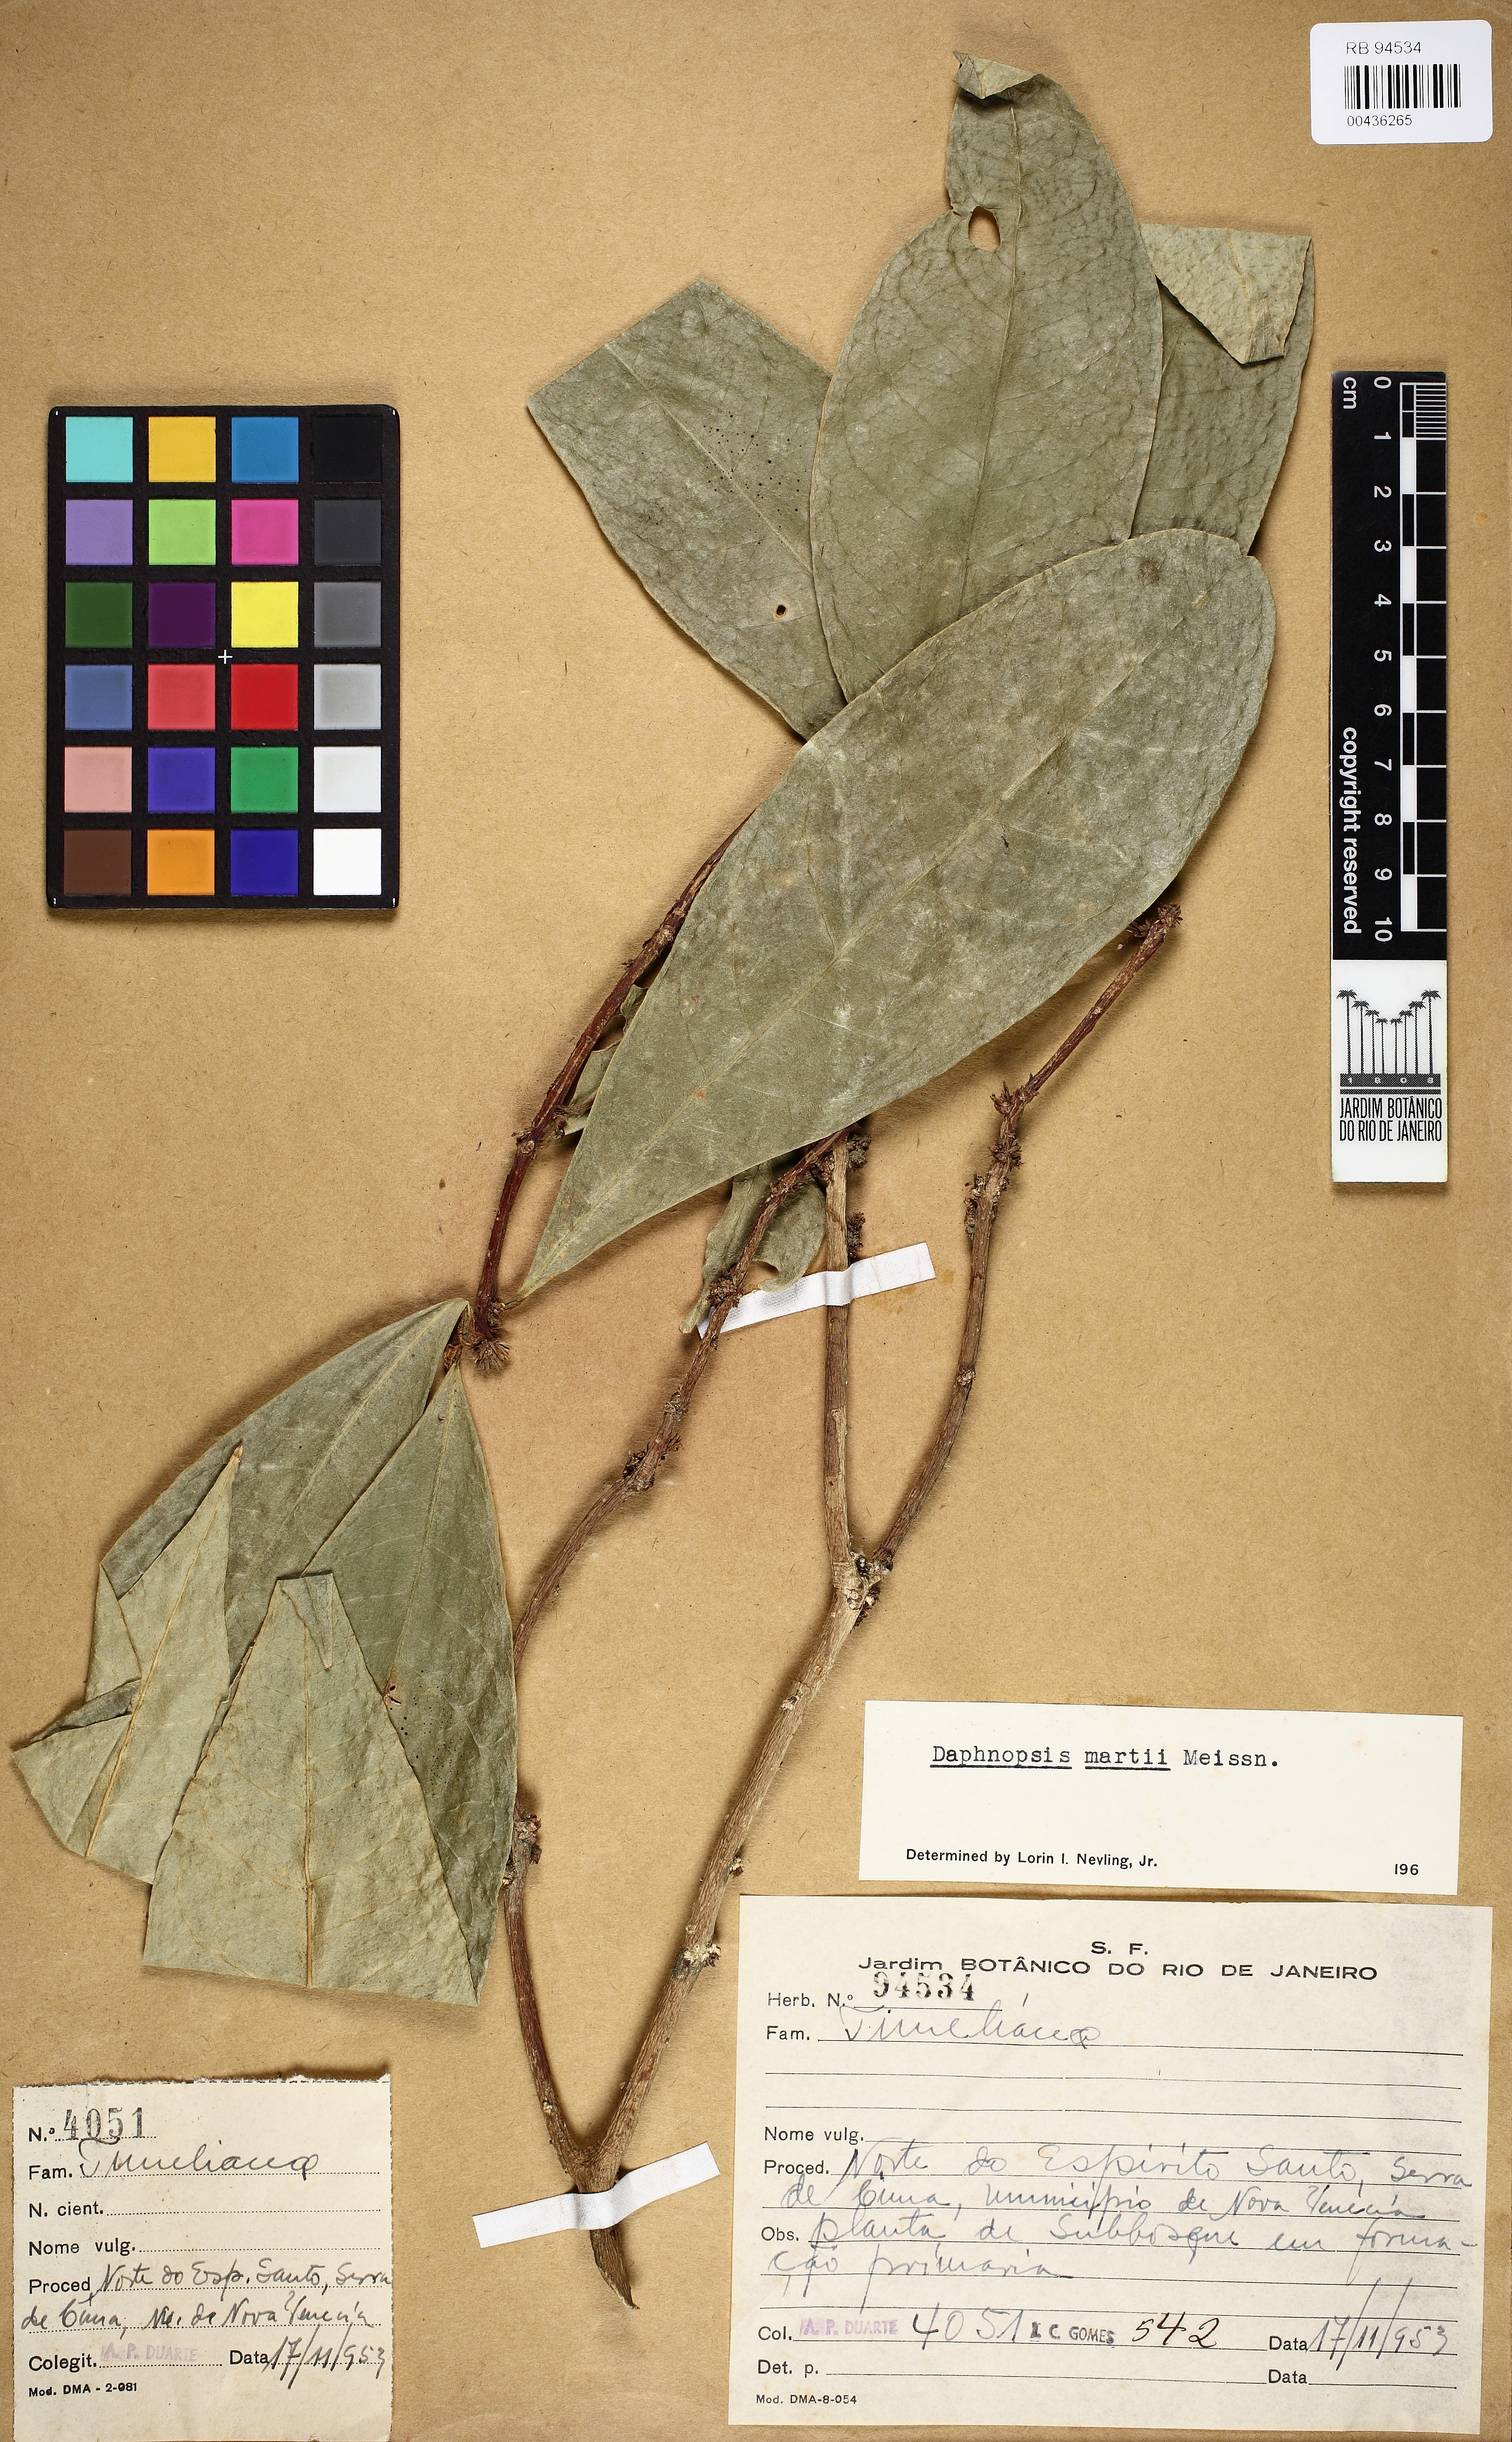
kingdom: Plantae
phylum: Tracheophyta
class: Magnoliopsida
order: Malvales
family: Thymelaeaceae
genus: Daphnopsis
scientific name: Daphnopsis martii
